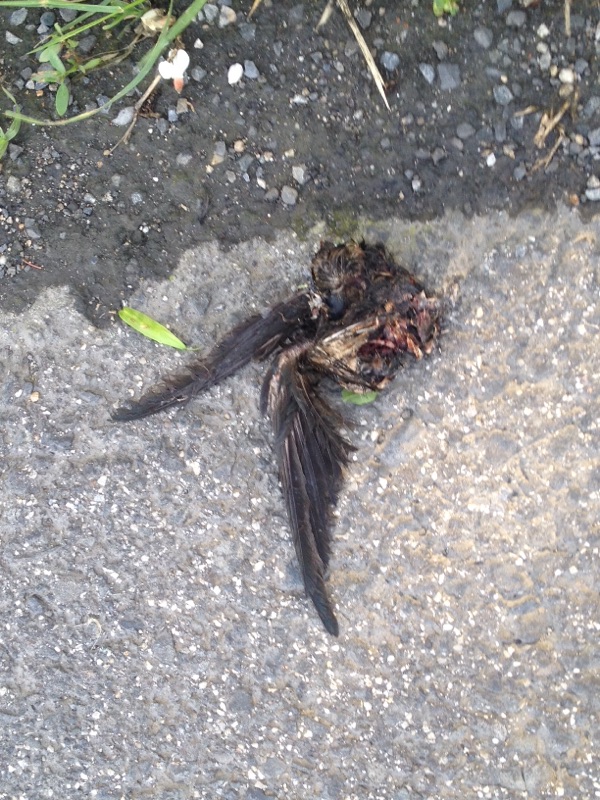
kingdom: Animalia
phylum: Chordata
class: Aves
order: Passeriformes
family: Hirundinidae
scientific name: Hirundinidae
